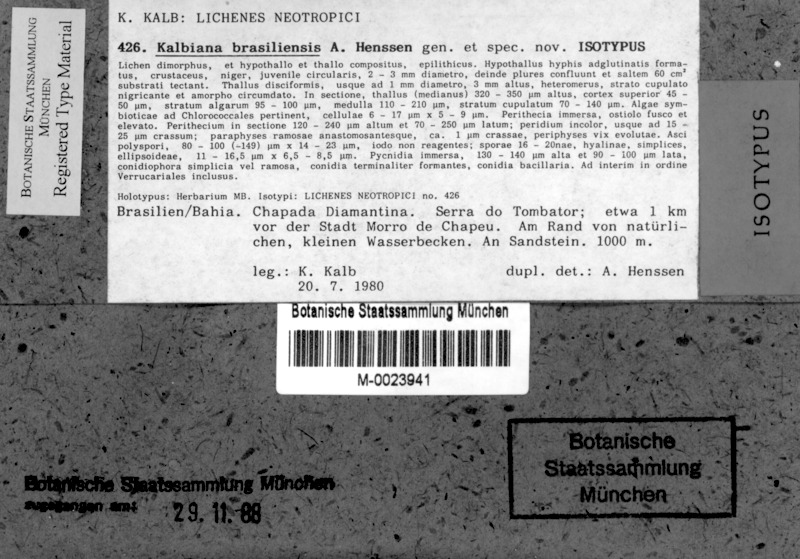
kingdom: Fungi
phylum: Ascomycota
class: Eurotiomycetes
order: Verrucariales
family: Verrucariaceae
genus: Kalbiana
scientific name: Kalbiana brasiliensis
